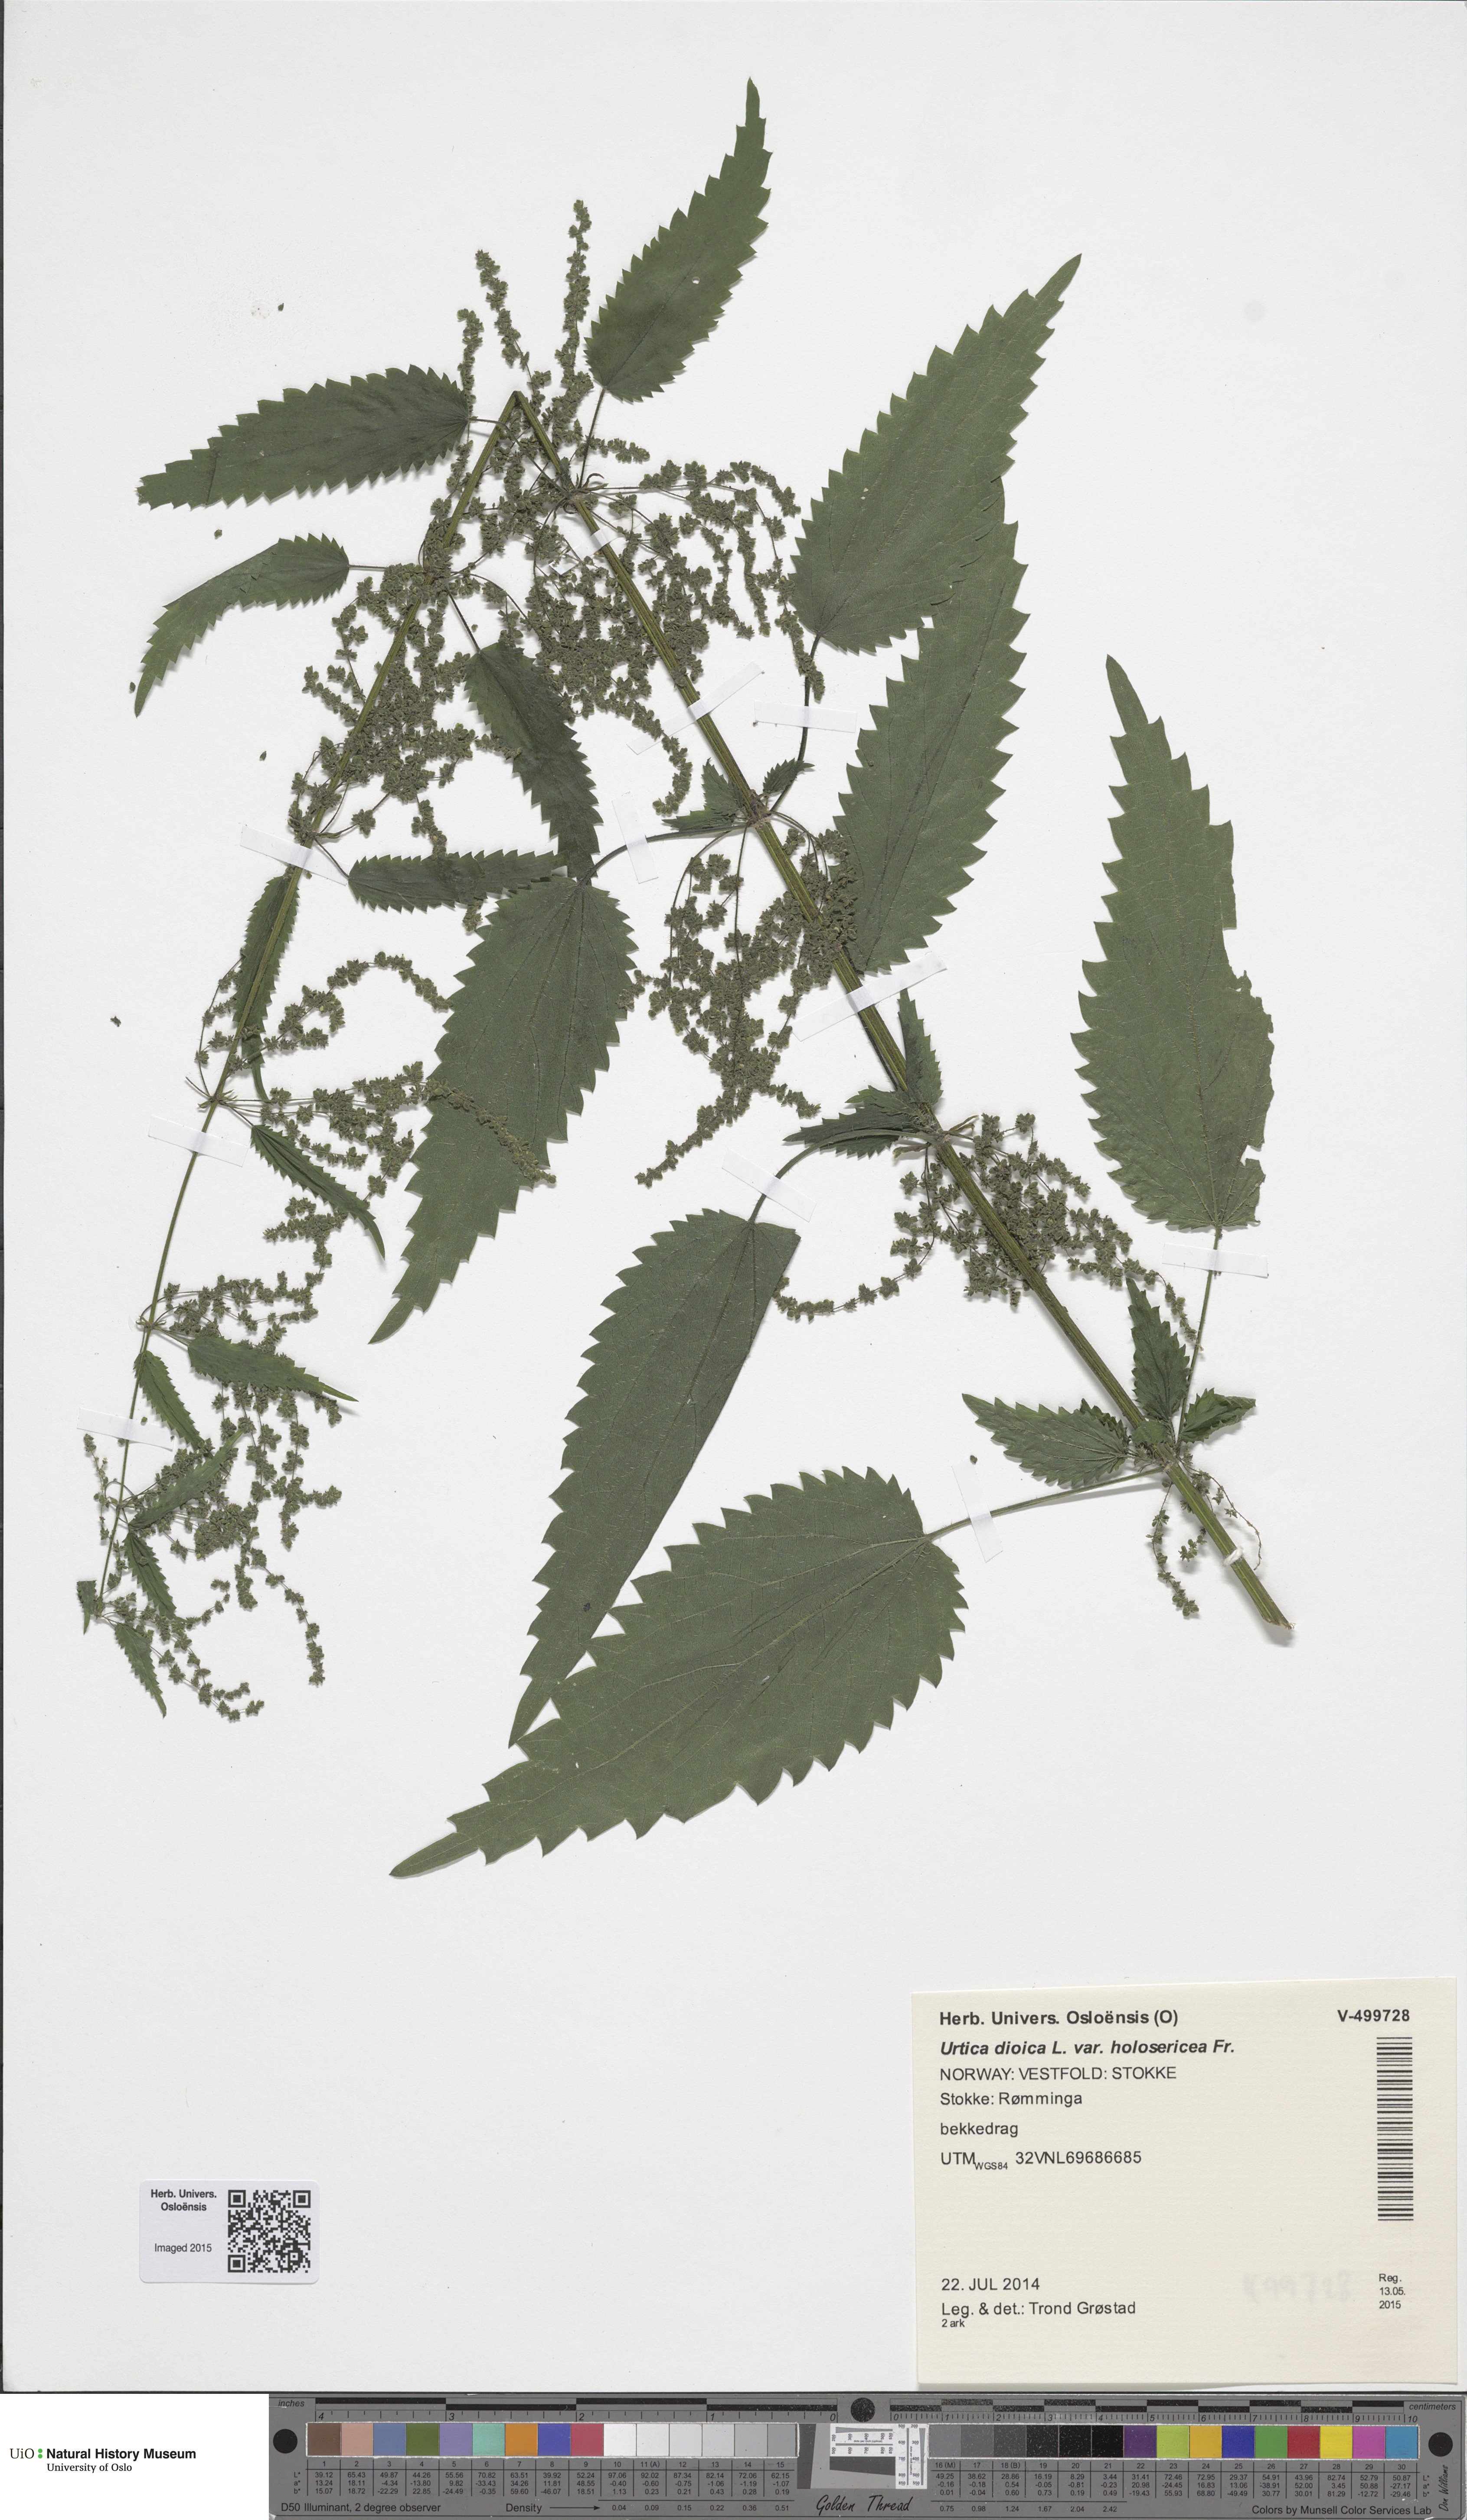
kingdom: Plantae
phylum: Tracheophyta
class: Magnoliopsida
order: Rosales
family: Urticaceae
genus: Urtica
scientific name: Urtica dioica
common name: Common nettle
